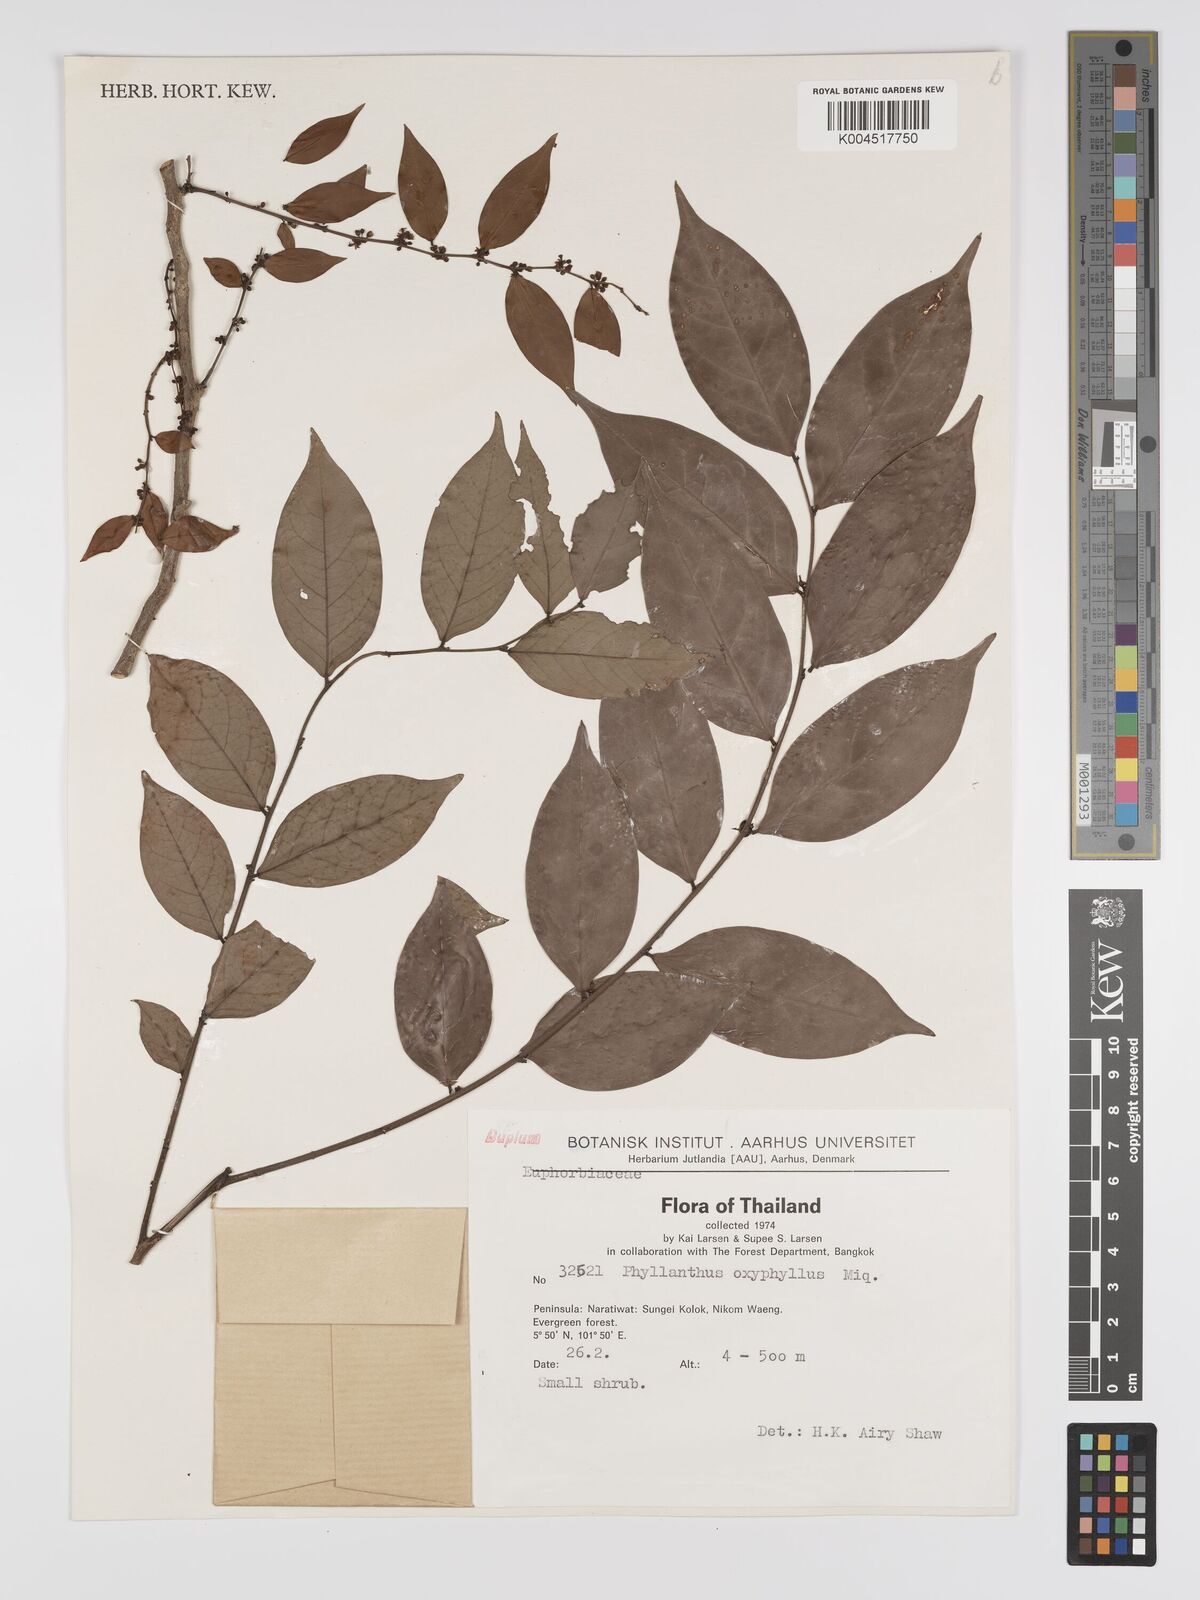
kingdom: Plantae
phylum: Tracheophyta
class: Magnoliopsida
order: Malpighiales
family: Phyllanthaceae
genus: Phyllanthus
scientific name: Phyllanthus
